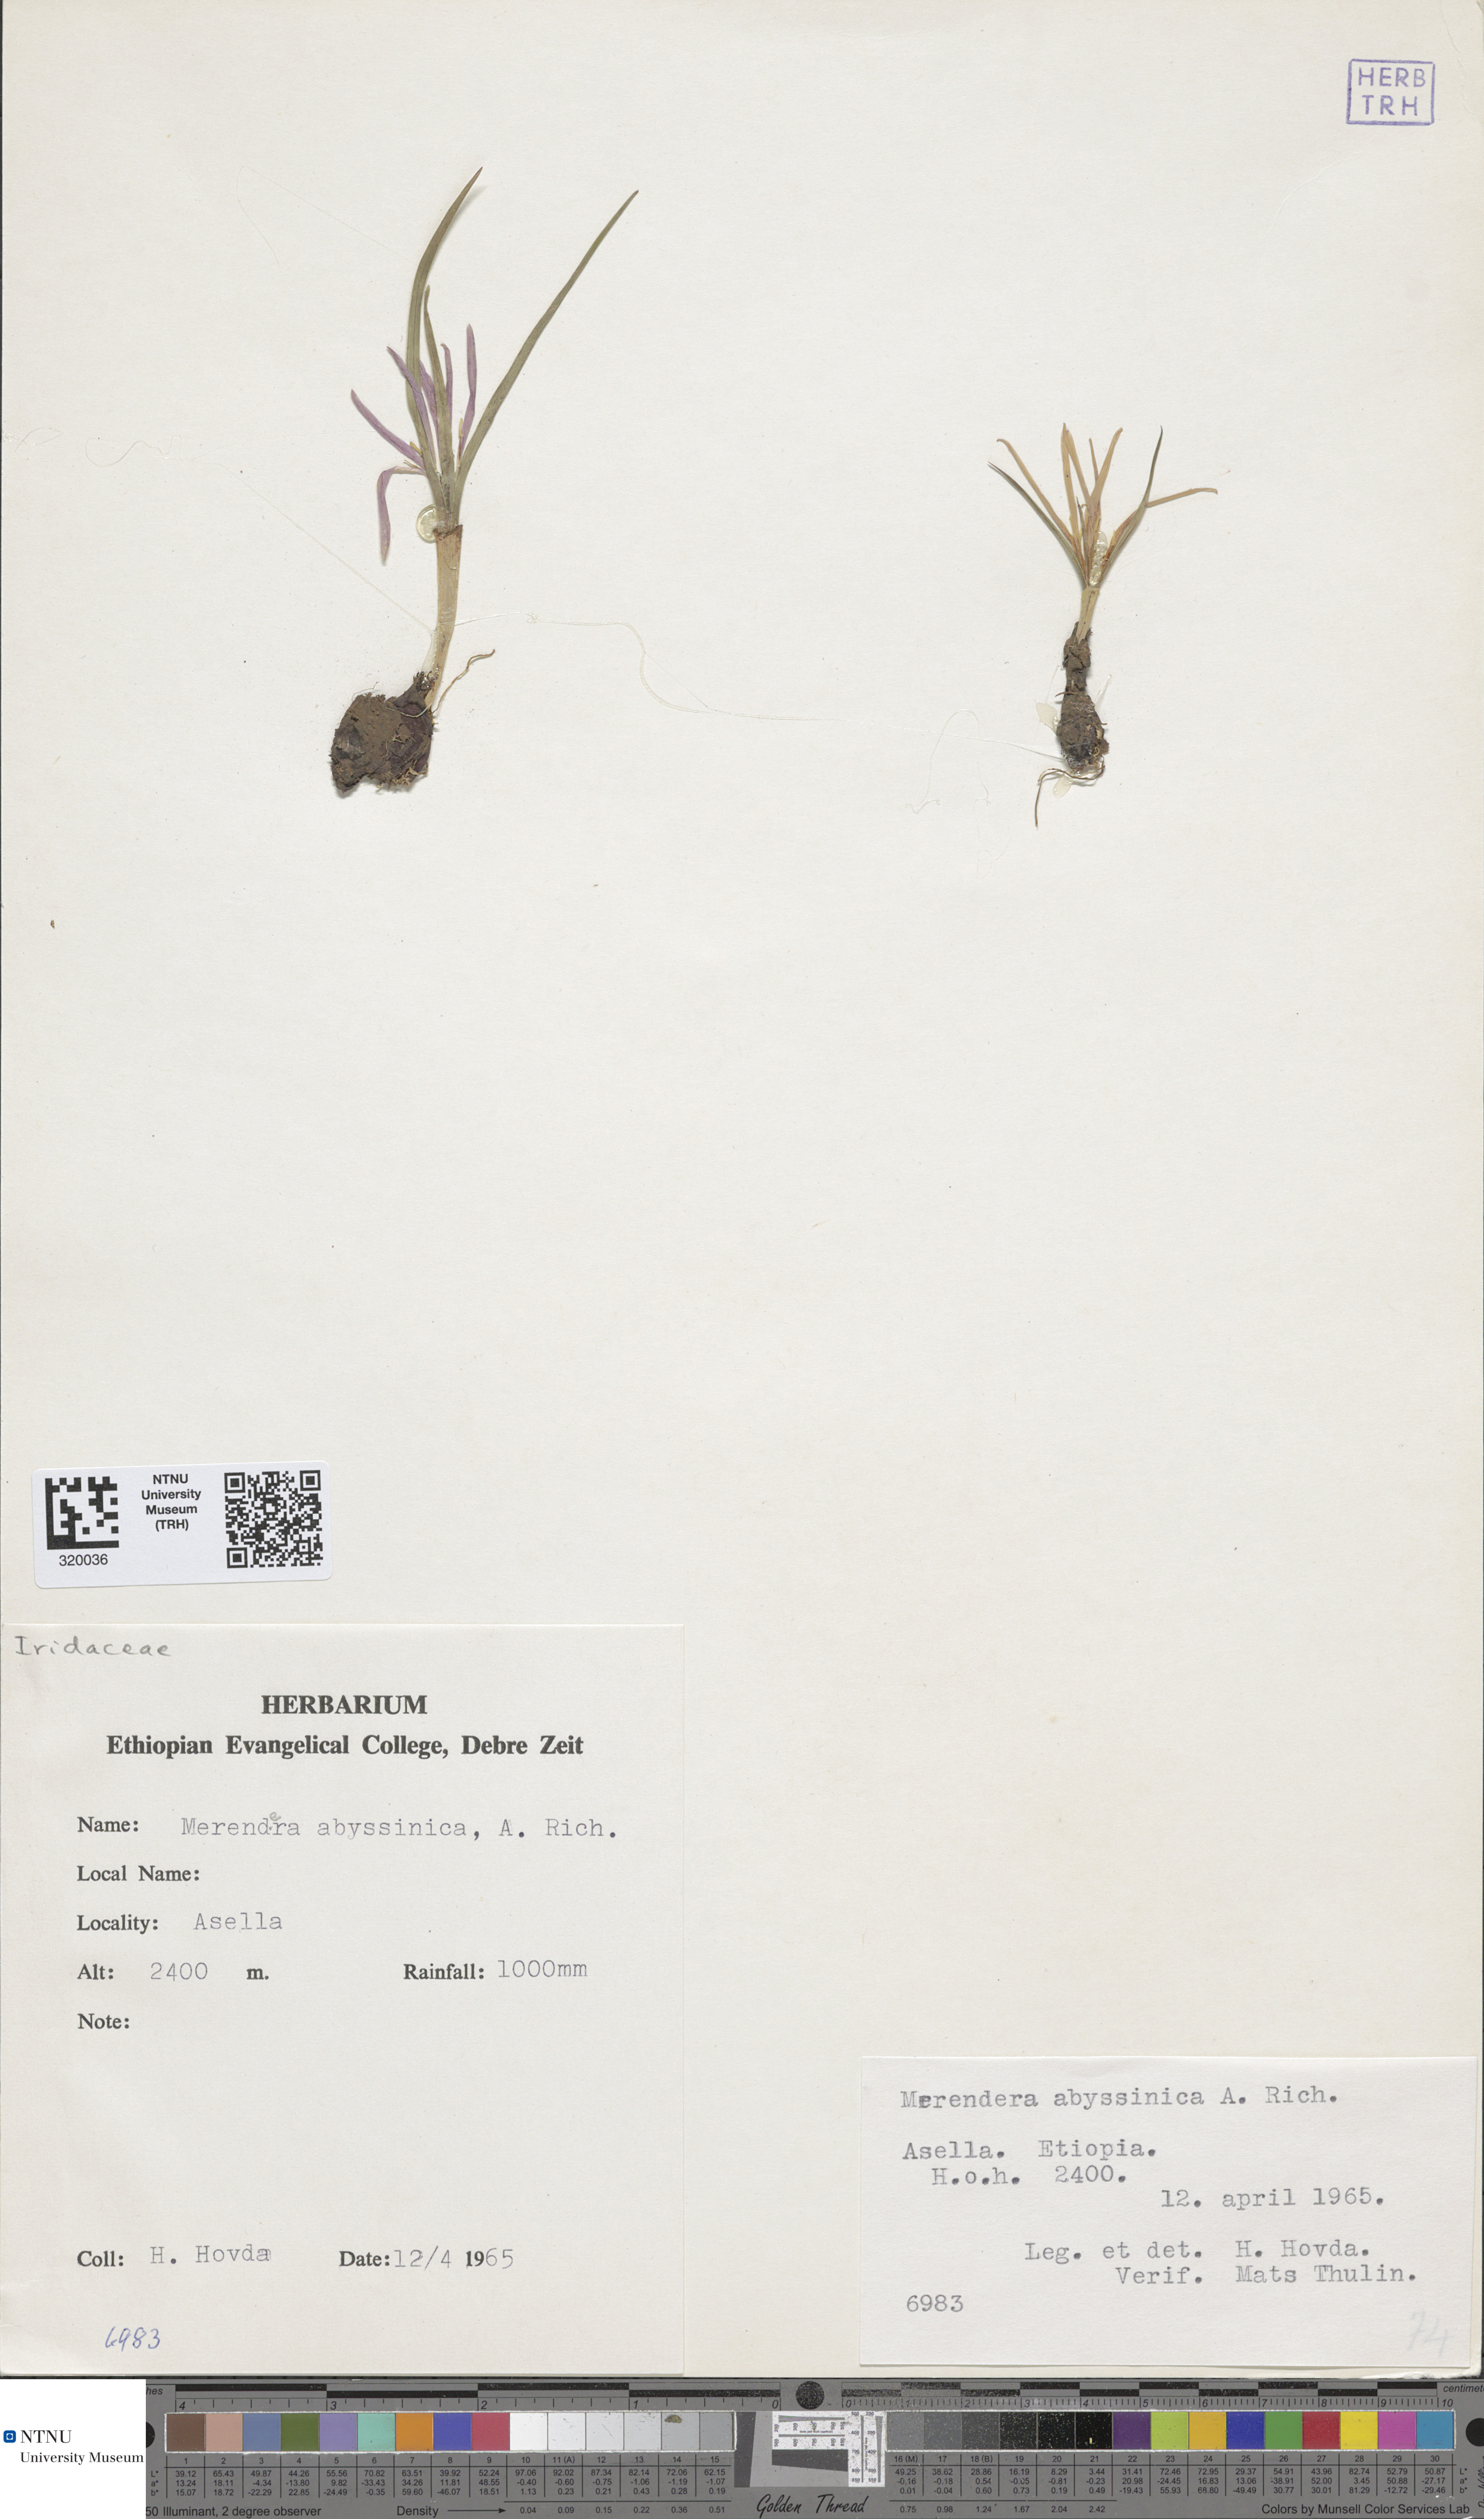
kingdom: Plantae
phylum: Tracheophyta
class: Liliopsida
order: Liliales
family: Colchicaceae
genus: Colchicum
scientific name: Colchicum schimperianum
